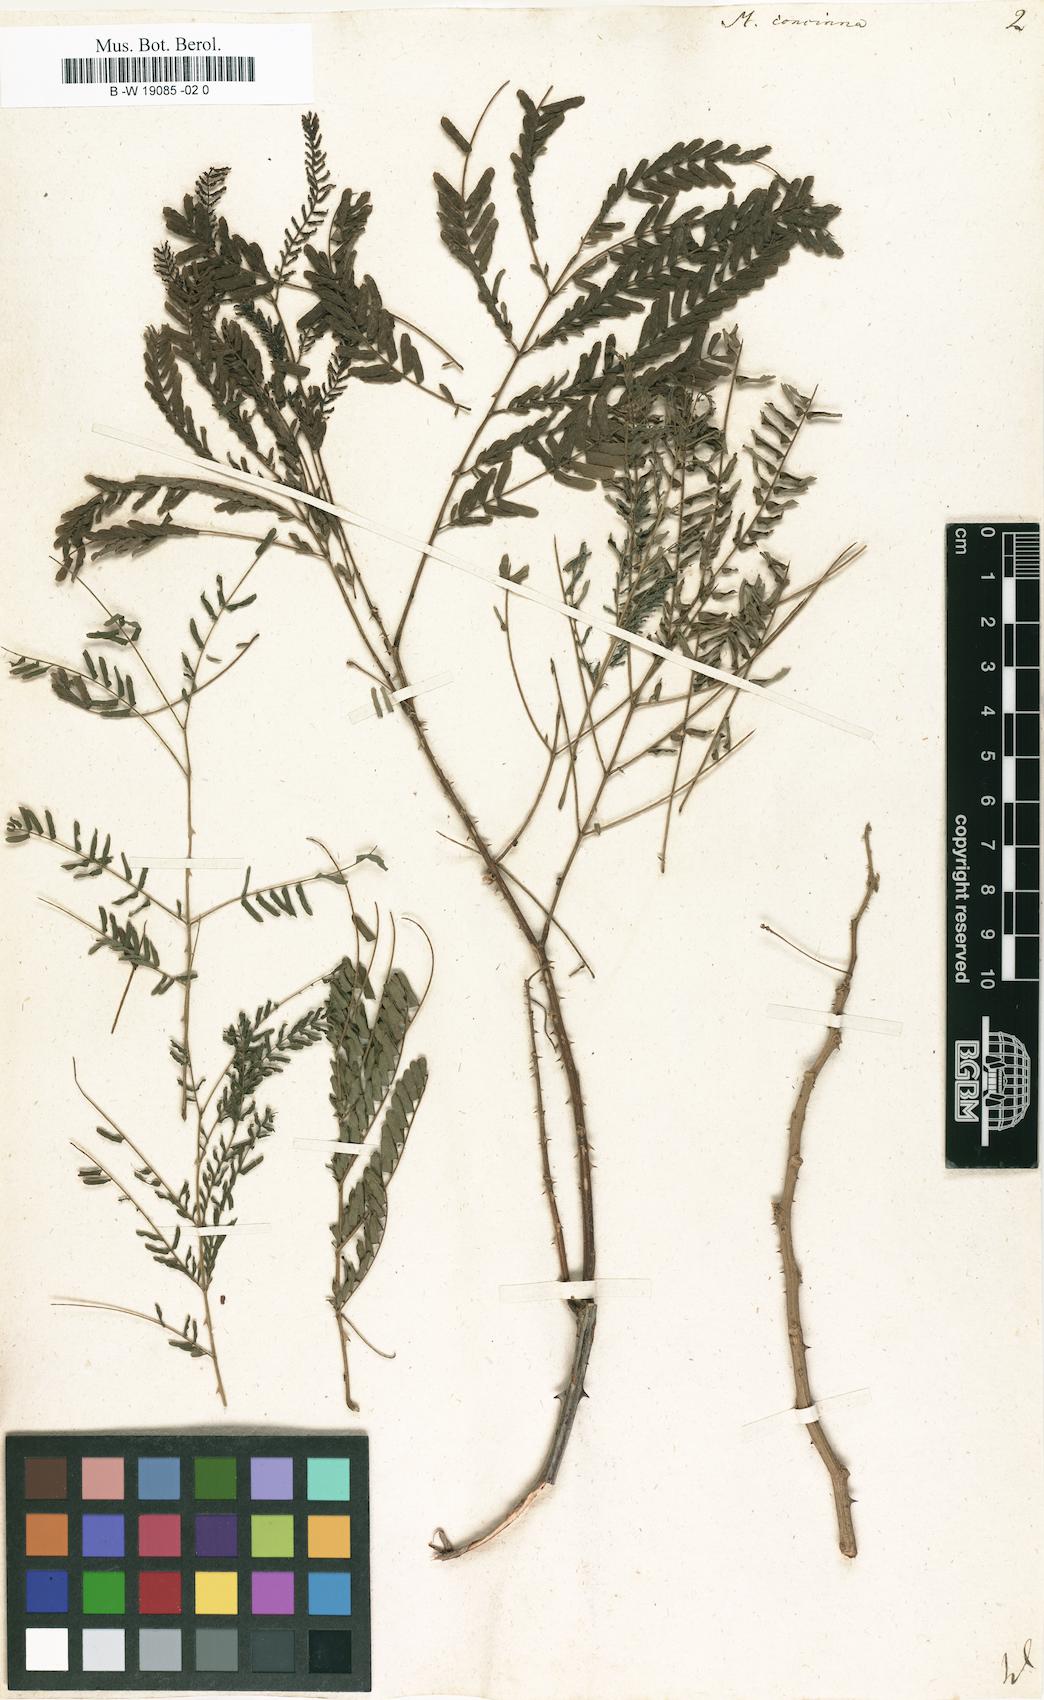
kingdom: Plantae
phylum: Tracheophyta
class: Magnoliopsida
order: Fabales
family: Fabaceae
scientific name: Fabaceae
